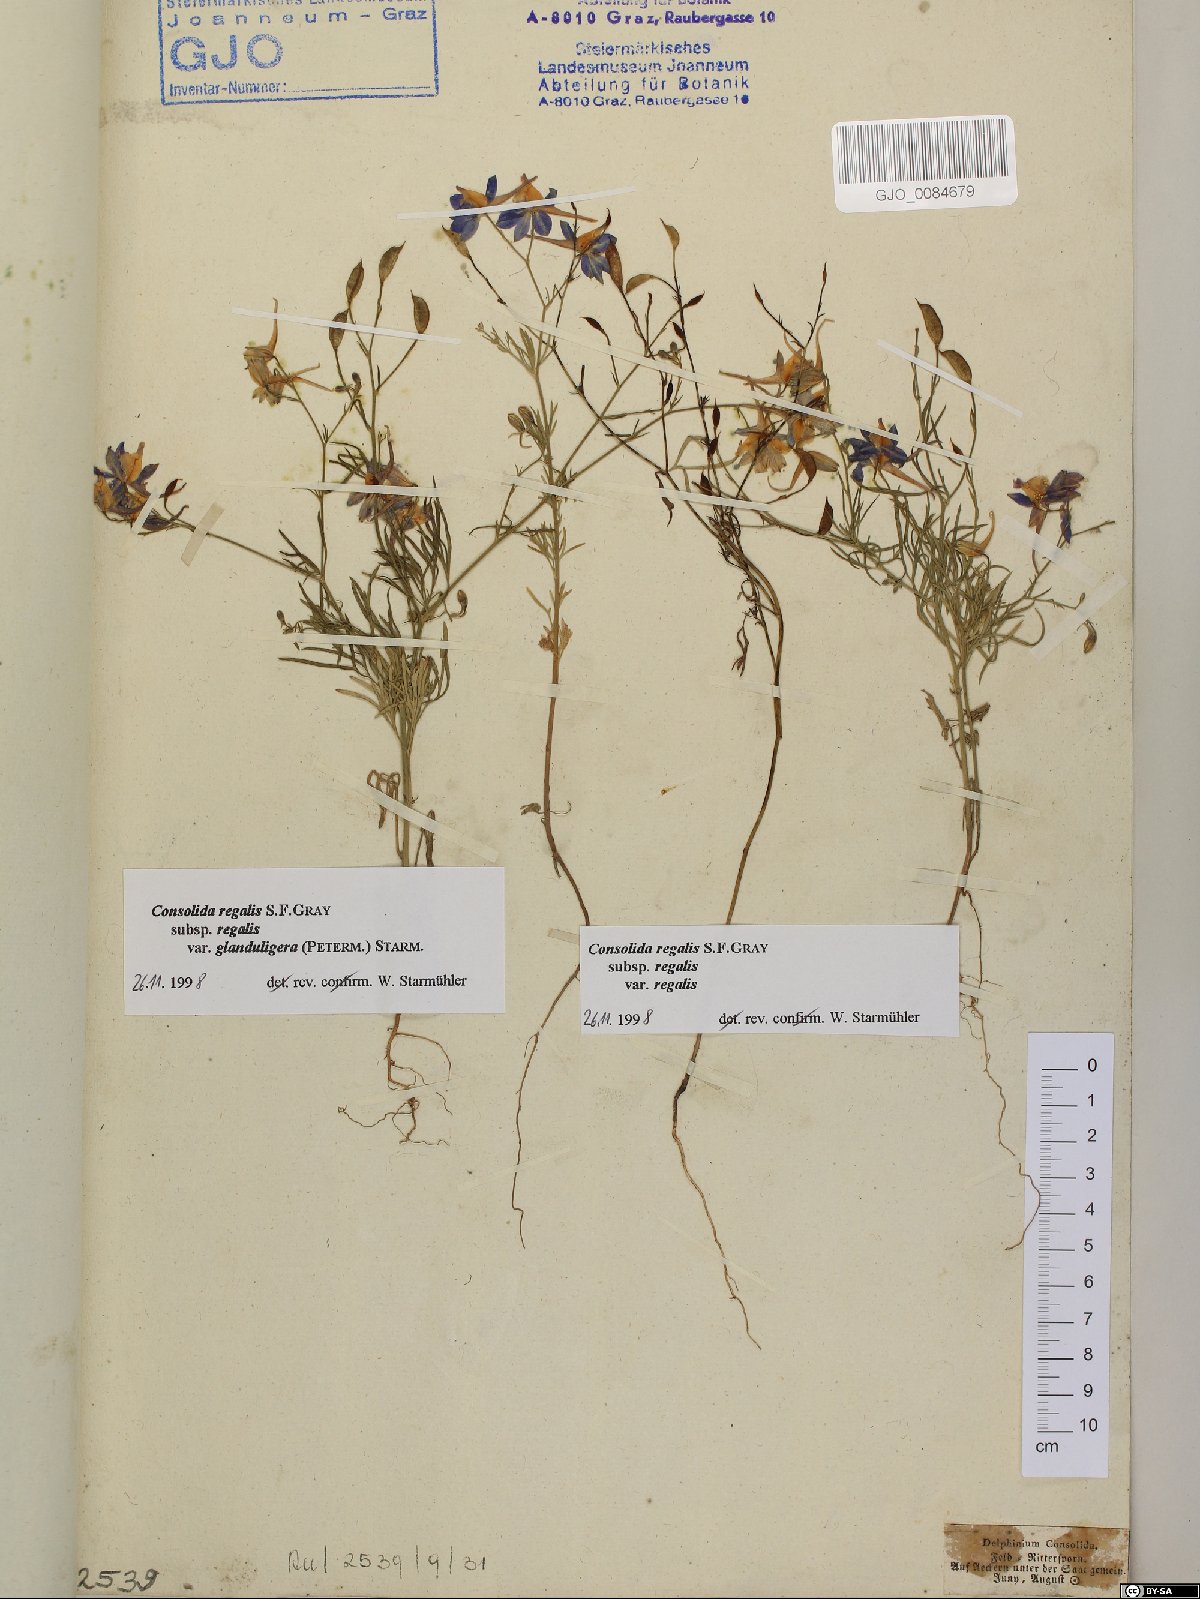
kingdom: Plantae
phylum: Tracheophyta
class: Magnoliopsida
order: Ranunculales
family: Ranunculaceae
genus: Delphinium
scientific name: Delphinium consolida
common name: Branching larkspur
